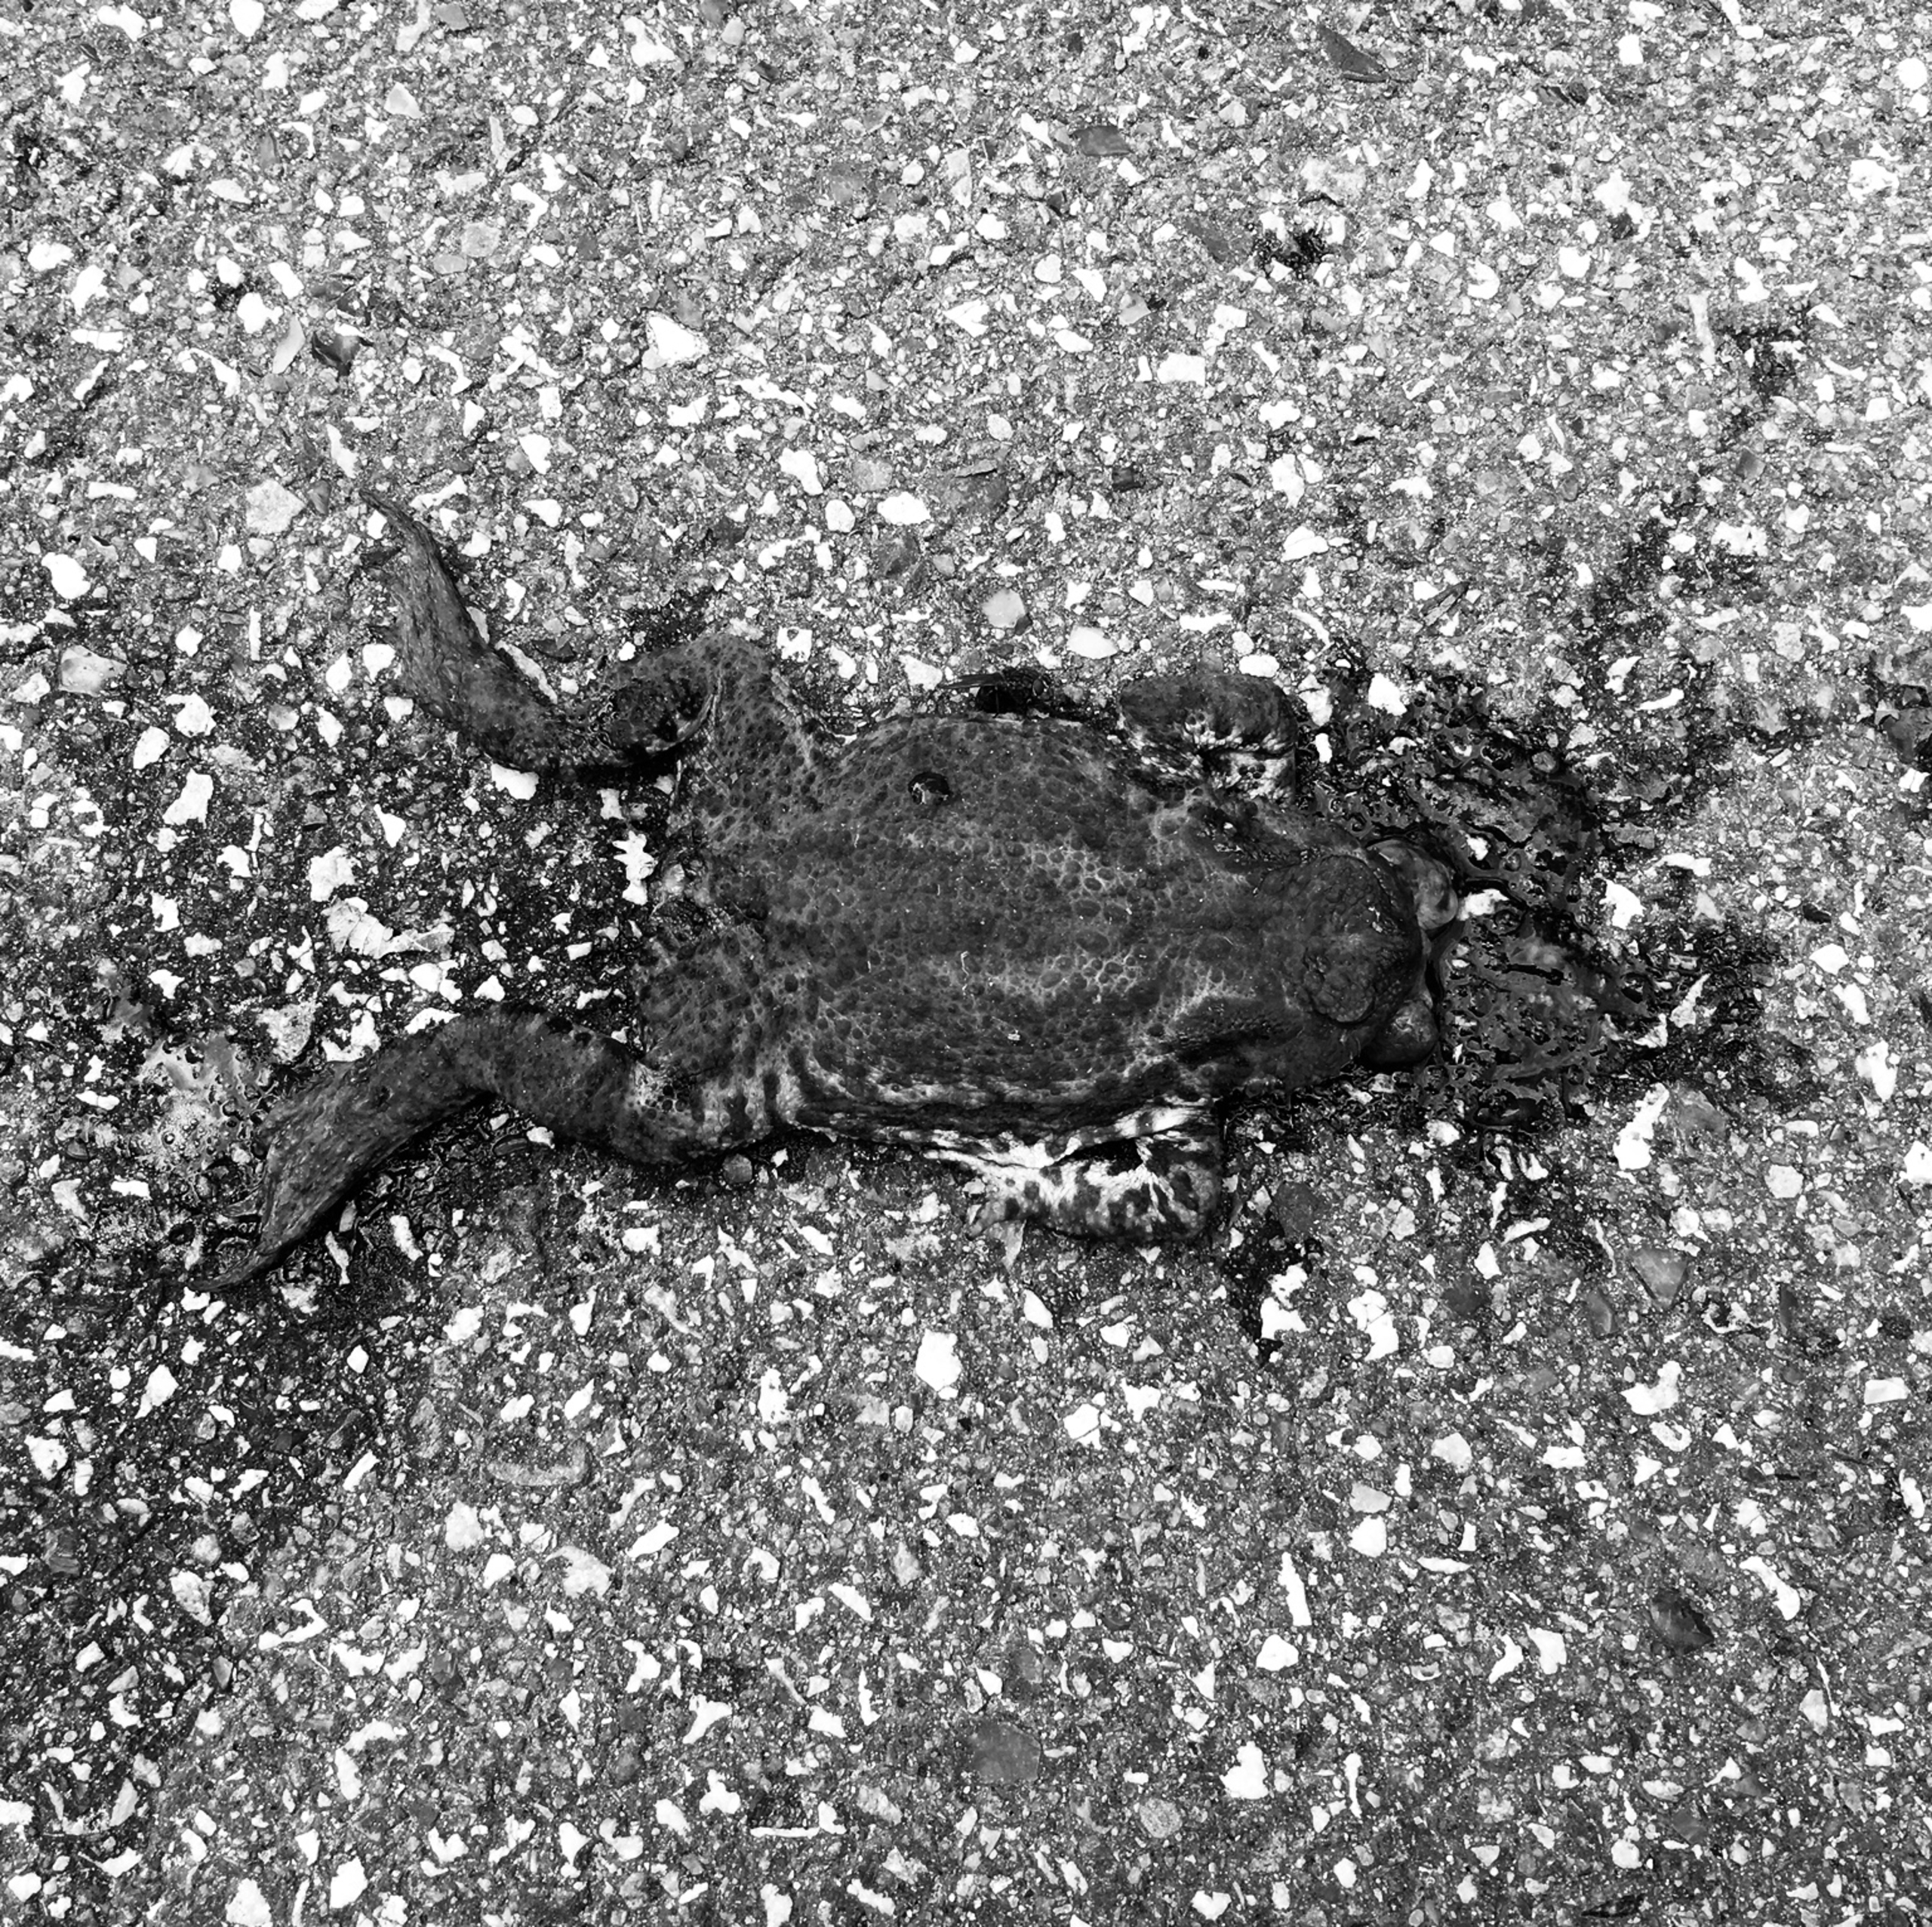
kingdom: Animalia
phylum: Chordata
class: Amphibia
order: Anura
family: Bufonidae
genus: Bufo
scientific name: Bufo bufo
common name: Skrubtudse
